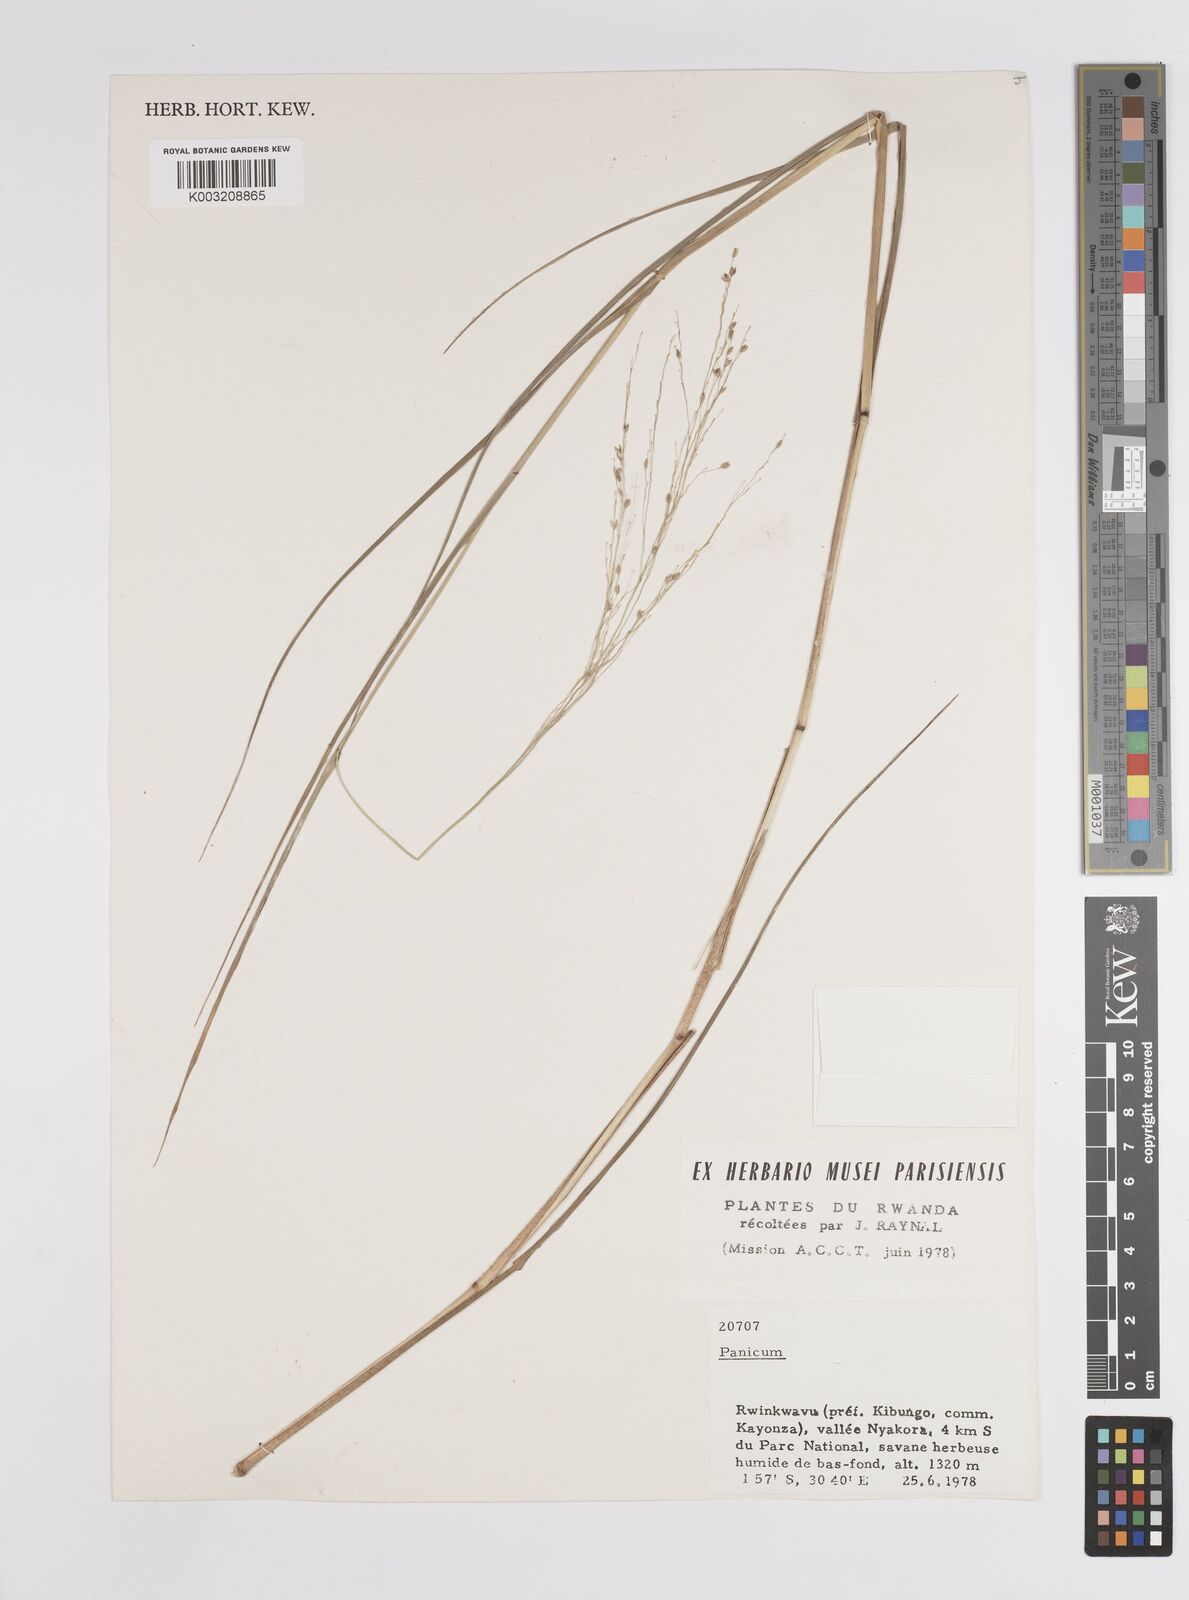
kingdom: Plantae
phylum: Tracheophyta
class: Liliopsida
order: Poales
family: Poaceae
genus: Panicum
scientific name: Panicum coloratum
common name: Kleingrass
